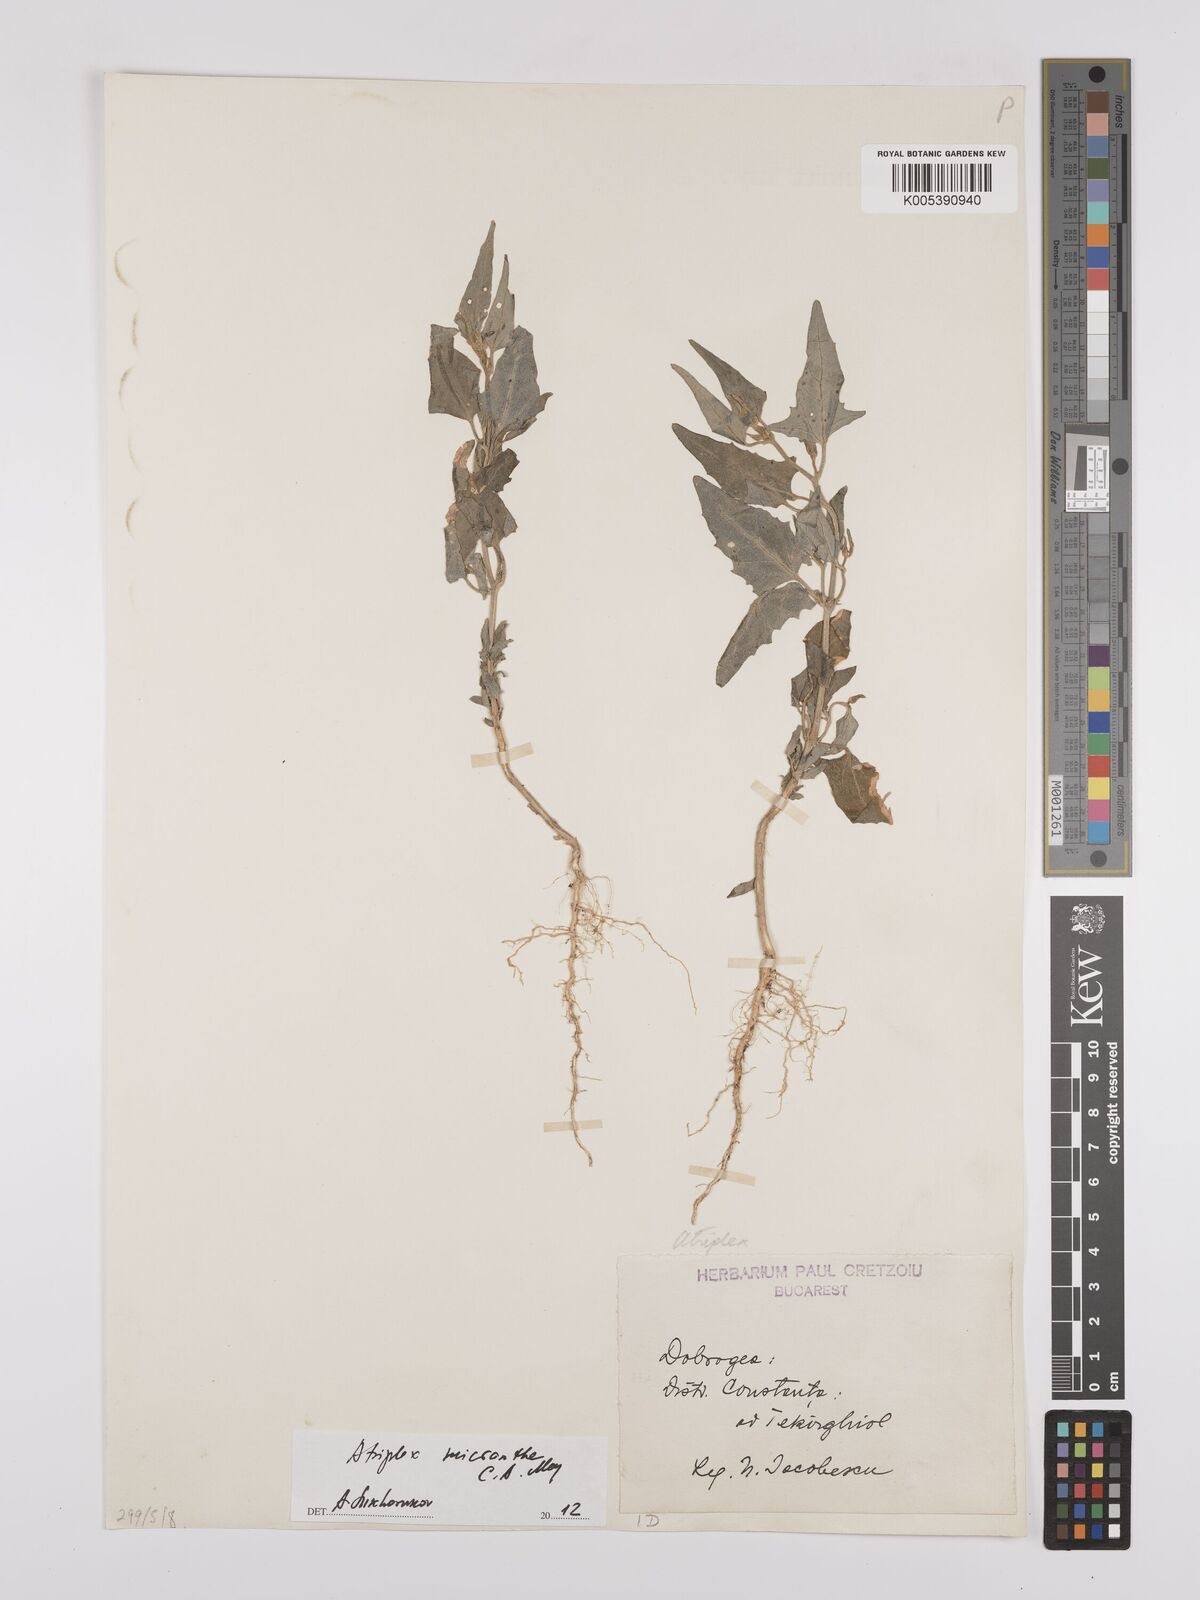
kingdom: Plantae
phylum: Tracheophyta
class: Magnoliopsida
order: Caryophyllales
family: Amaranthaceae
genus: Atriplex
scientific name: Atriplex micrantha
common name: Twoscale saltbush
